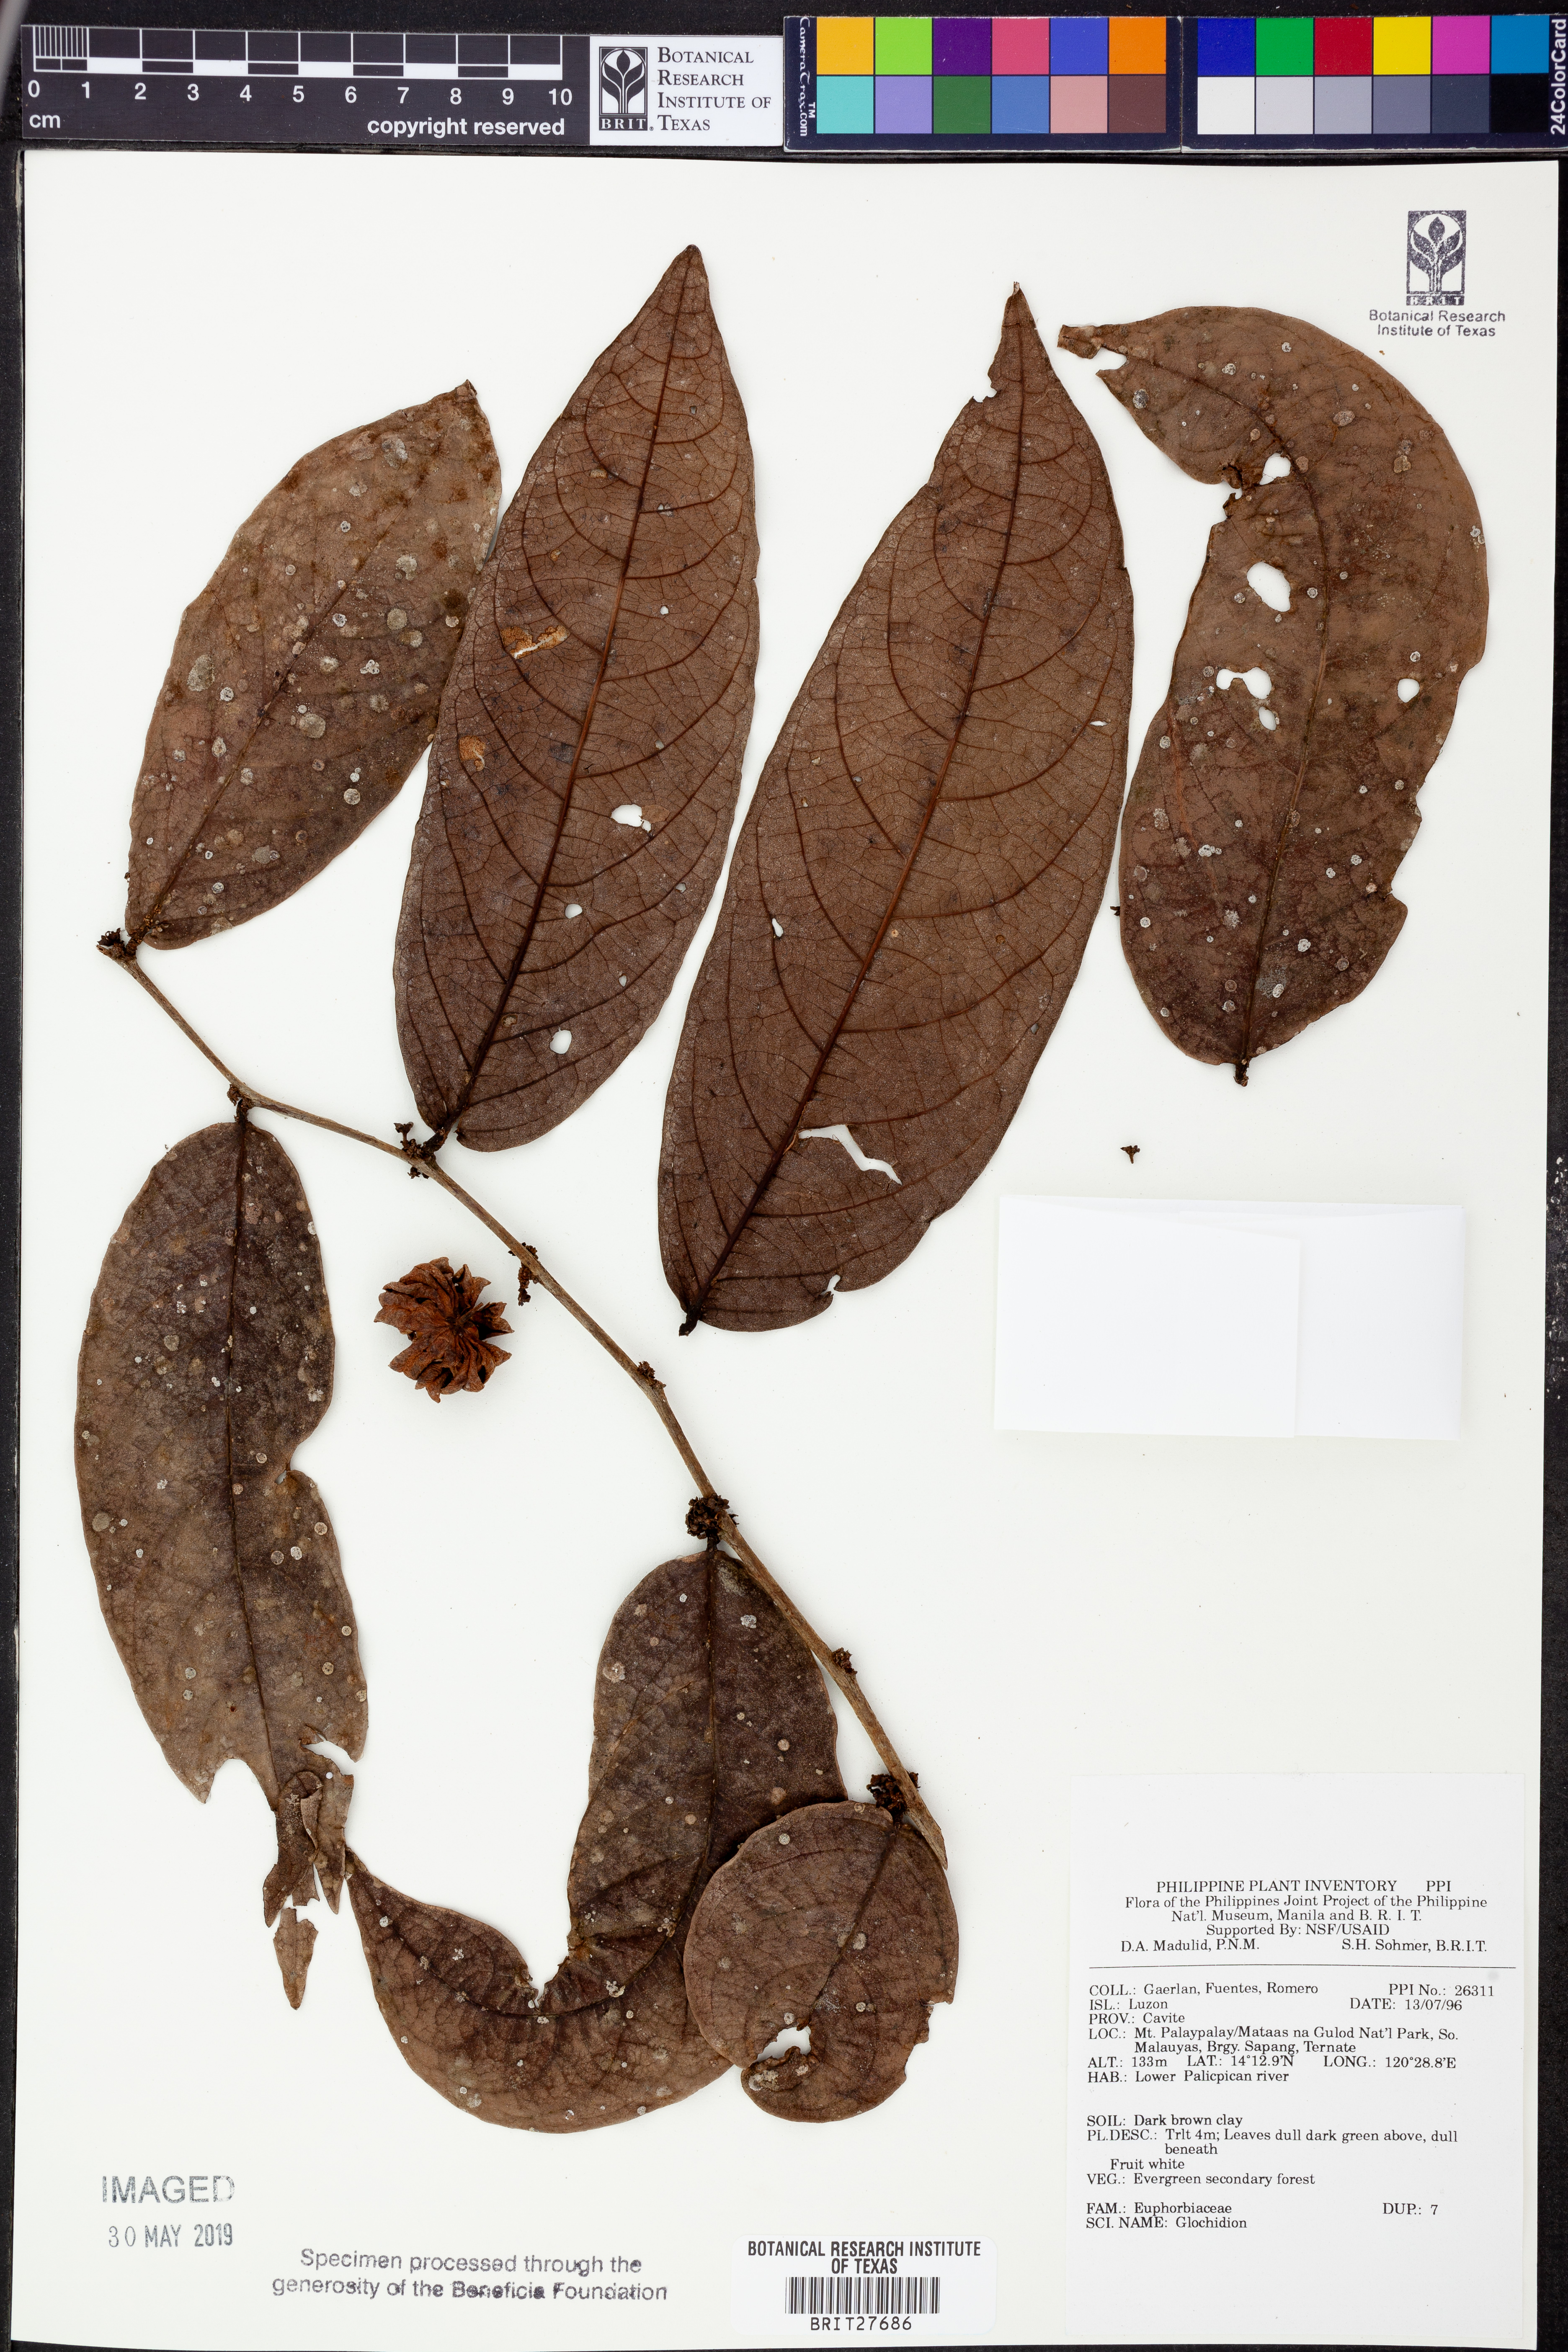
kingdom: Plantae
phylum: Tracheophyta
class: Magnoliopsida
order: Malpighiales
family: Phyllanthaceae
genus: Glochidion
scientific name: Glochidion
